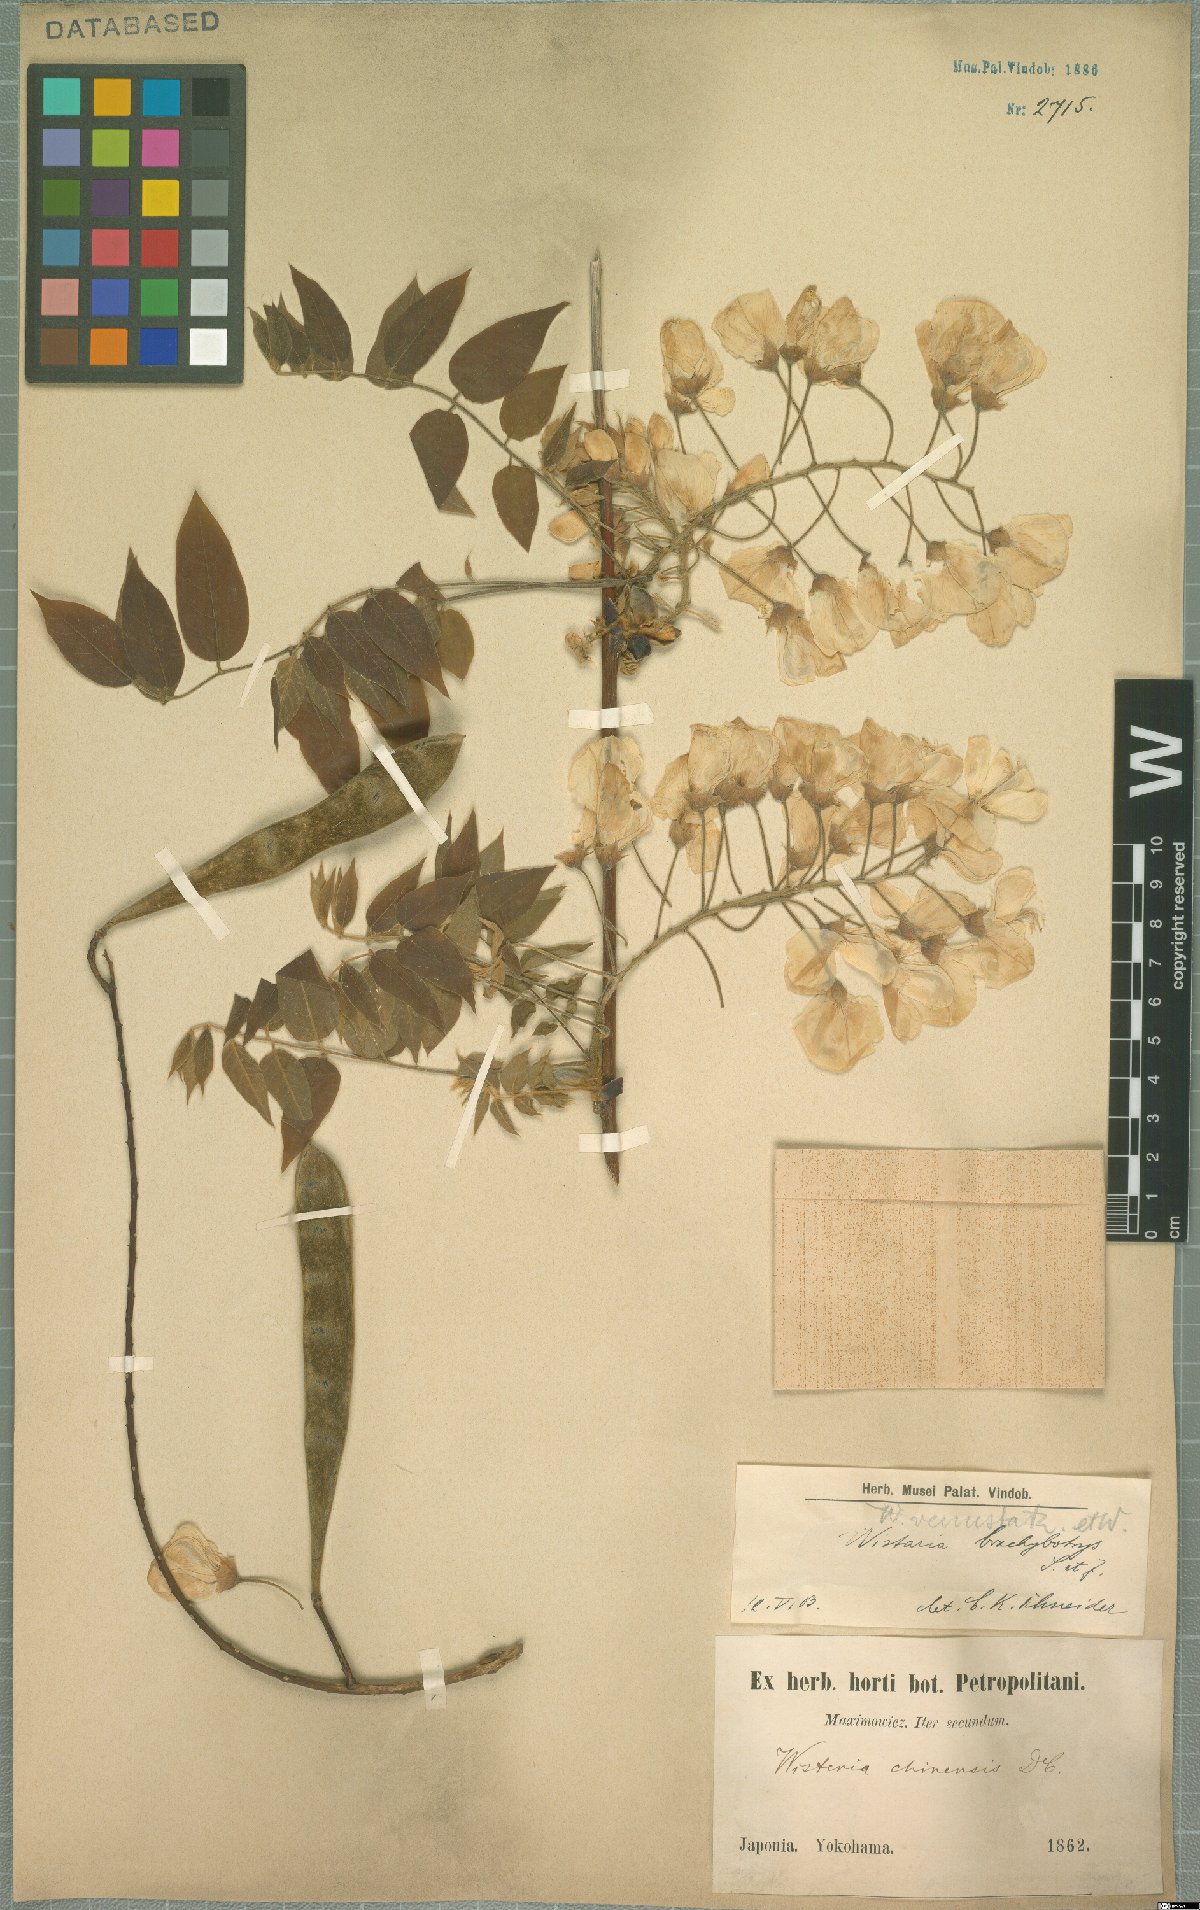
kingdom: Plantae
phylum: Tracheophyta
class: Magnoliopsida
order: Fabales
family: Fabaceae
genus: Wisteria
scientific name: Wisteria brachybotrys
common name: Silky wisteria
